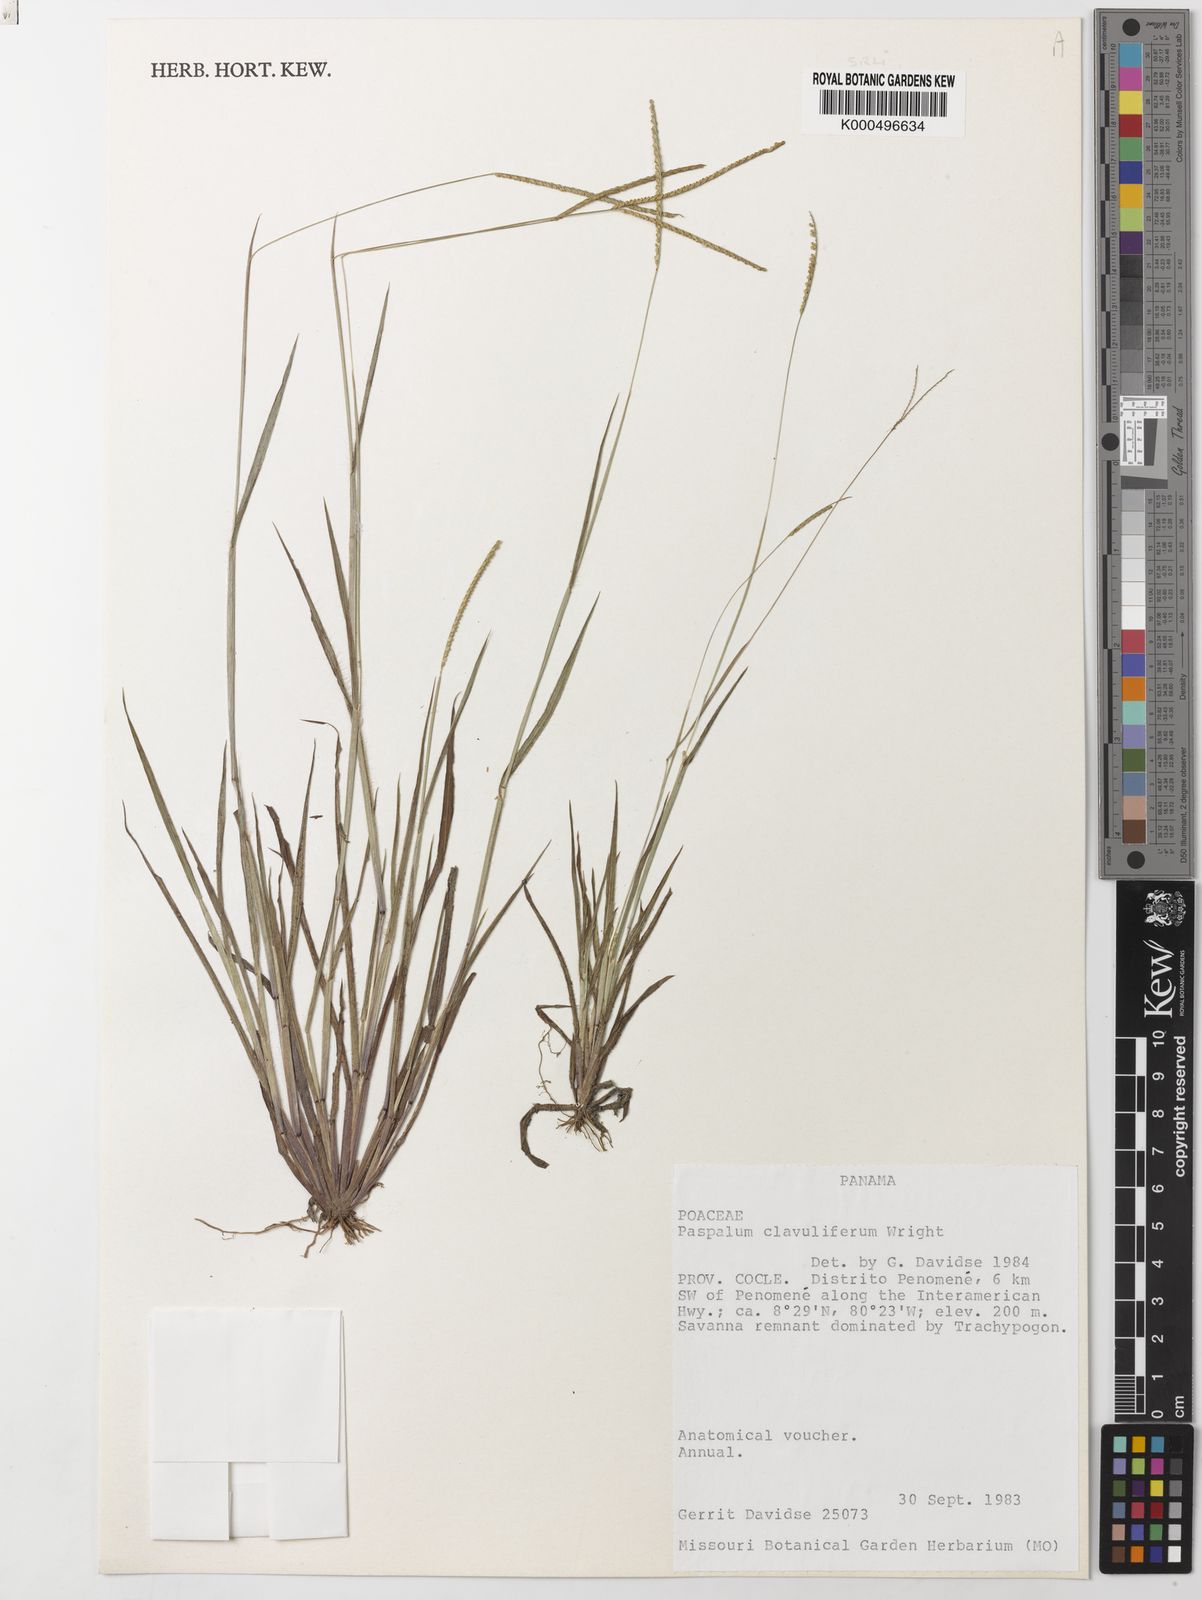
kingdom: Plantae
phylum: Tracheophyta
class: Liliopsida
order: Poales
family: Poaceae
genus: Paspalum
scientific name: Paspalum clavuliferum
